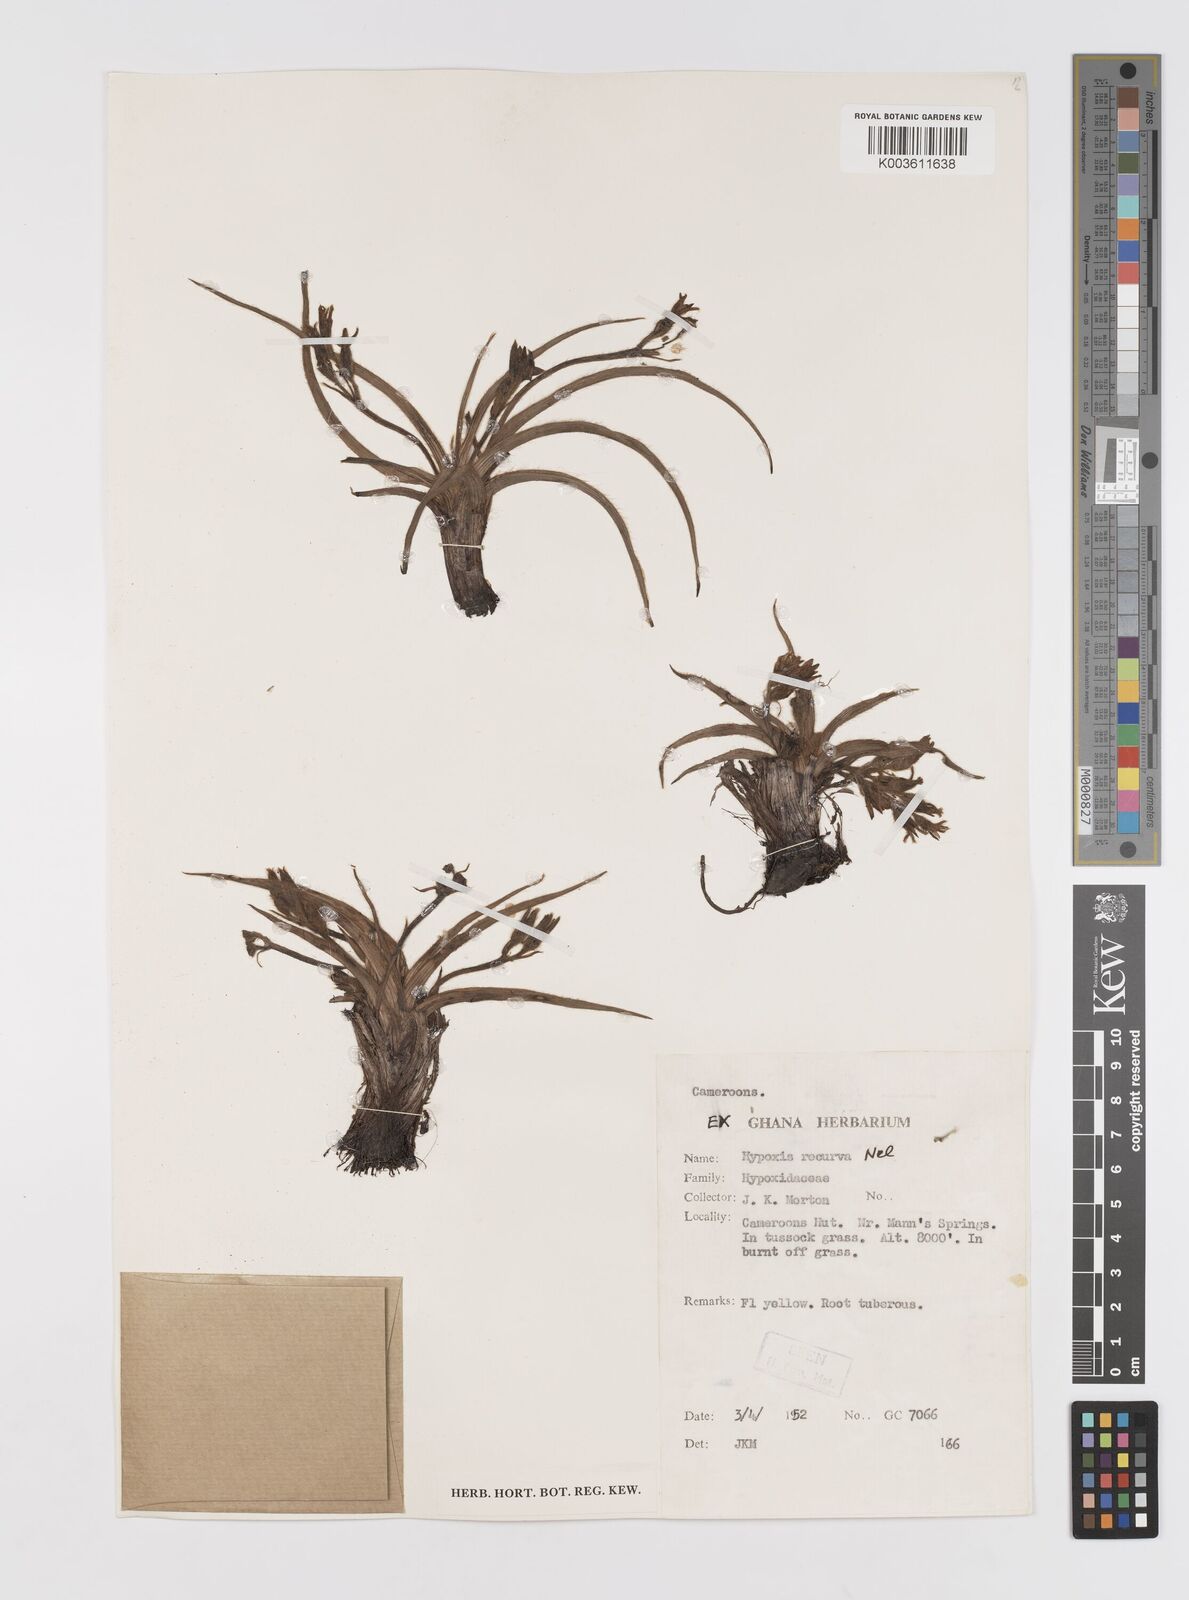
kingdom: Plantae
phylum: Tracheophyta
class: Liliopsida
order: Asparagales
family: Hypoxidaceae
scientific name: Hypoxidaceae
